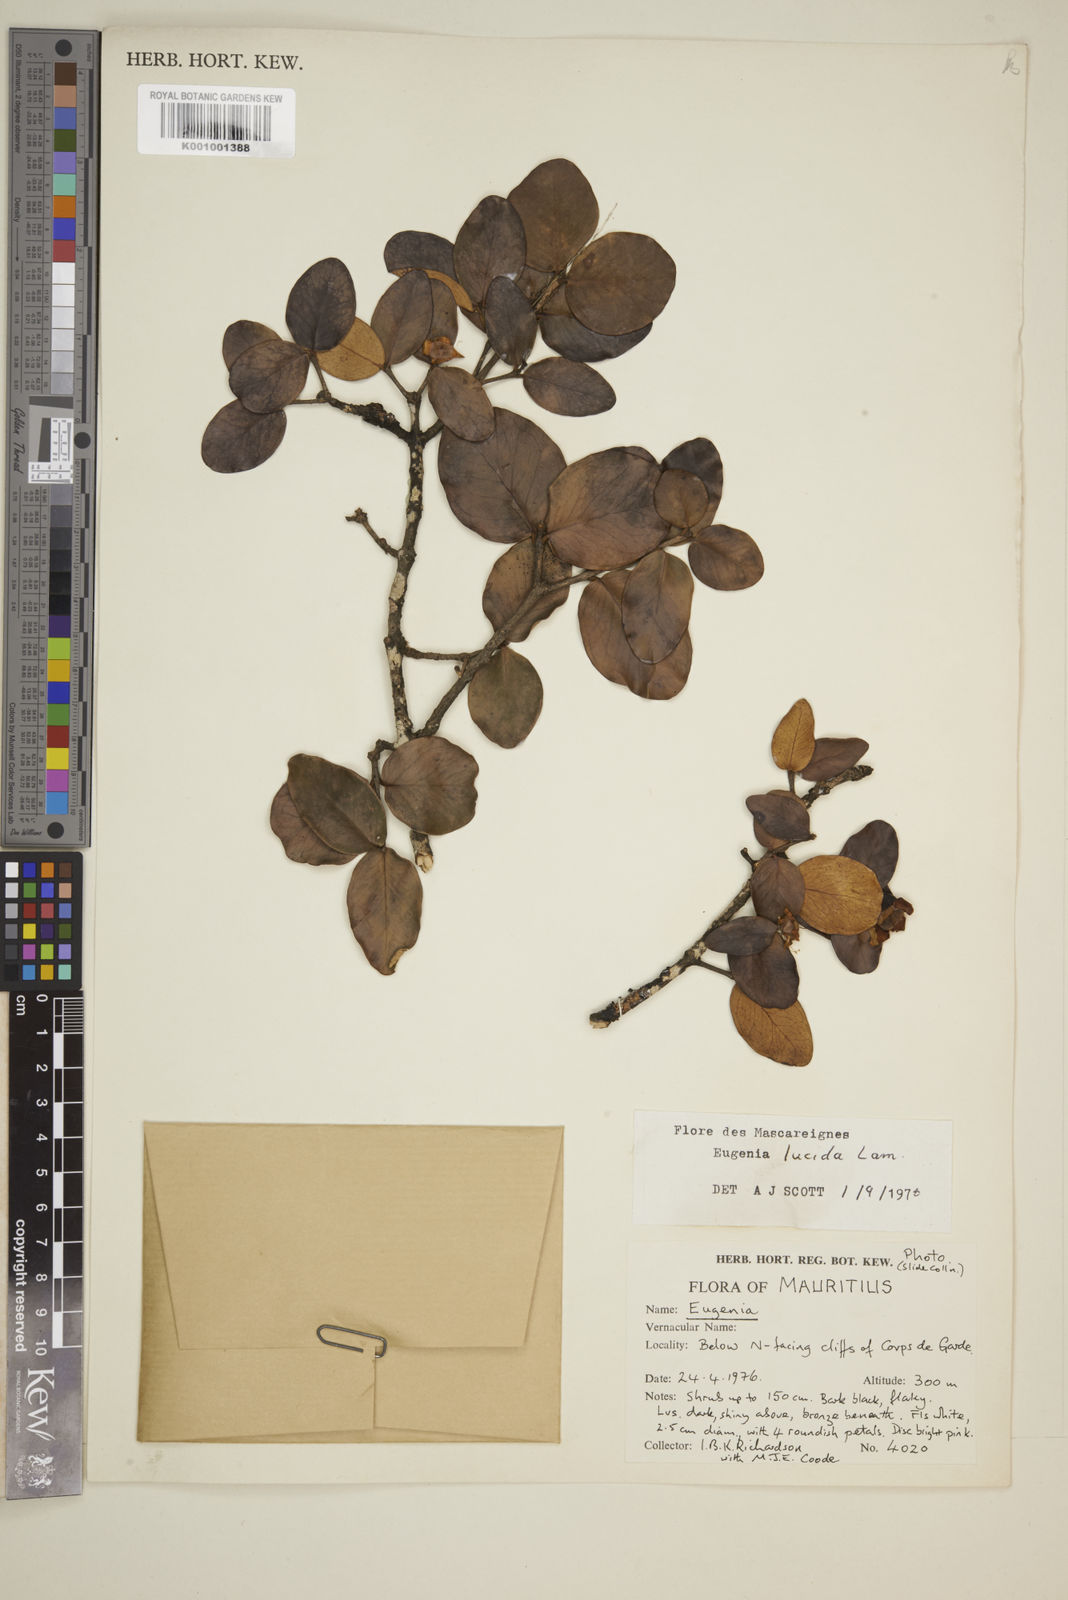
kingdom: Plantae
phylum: Tracheophyta
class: Magnoliopsida
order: Myrtales
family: Myrtaceae
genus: Eugenia
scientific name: Eugenia lucida
